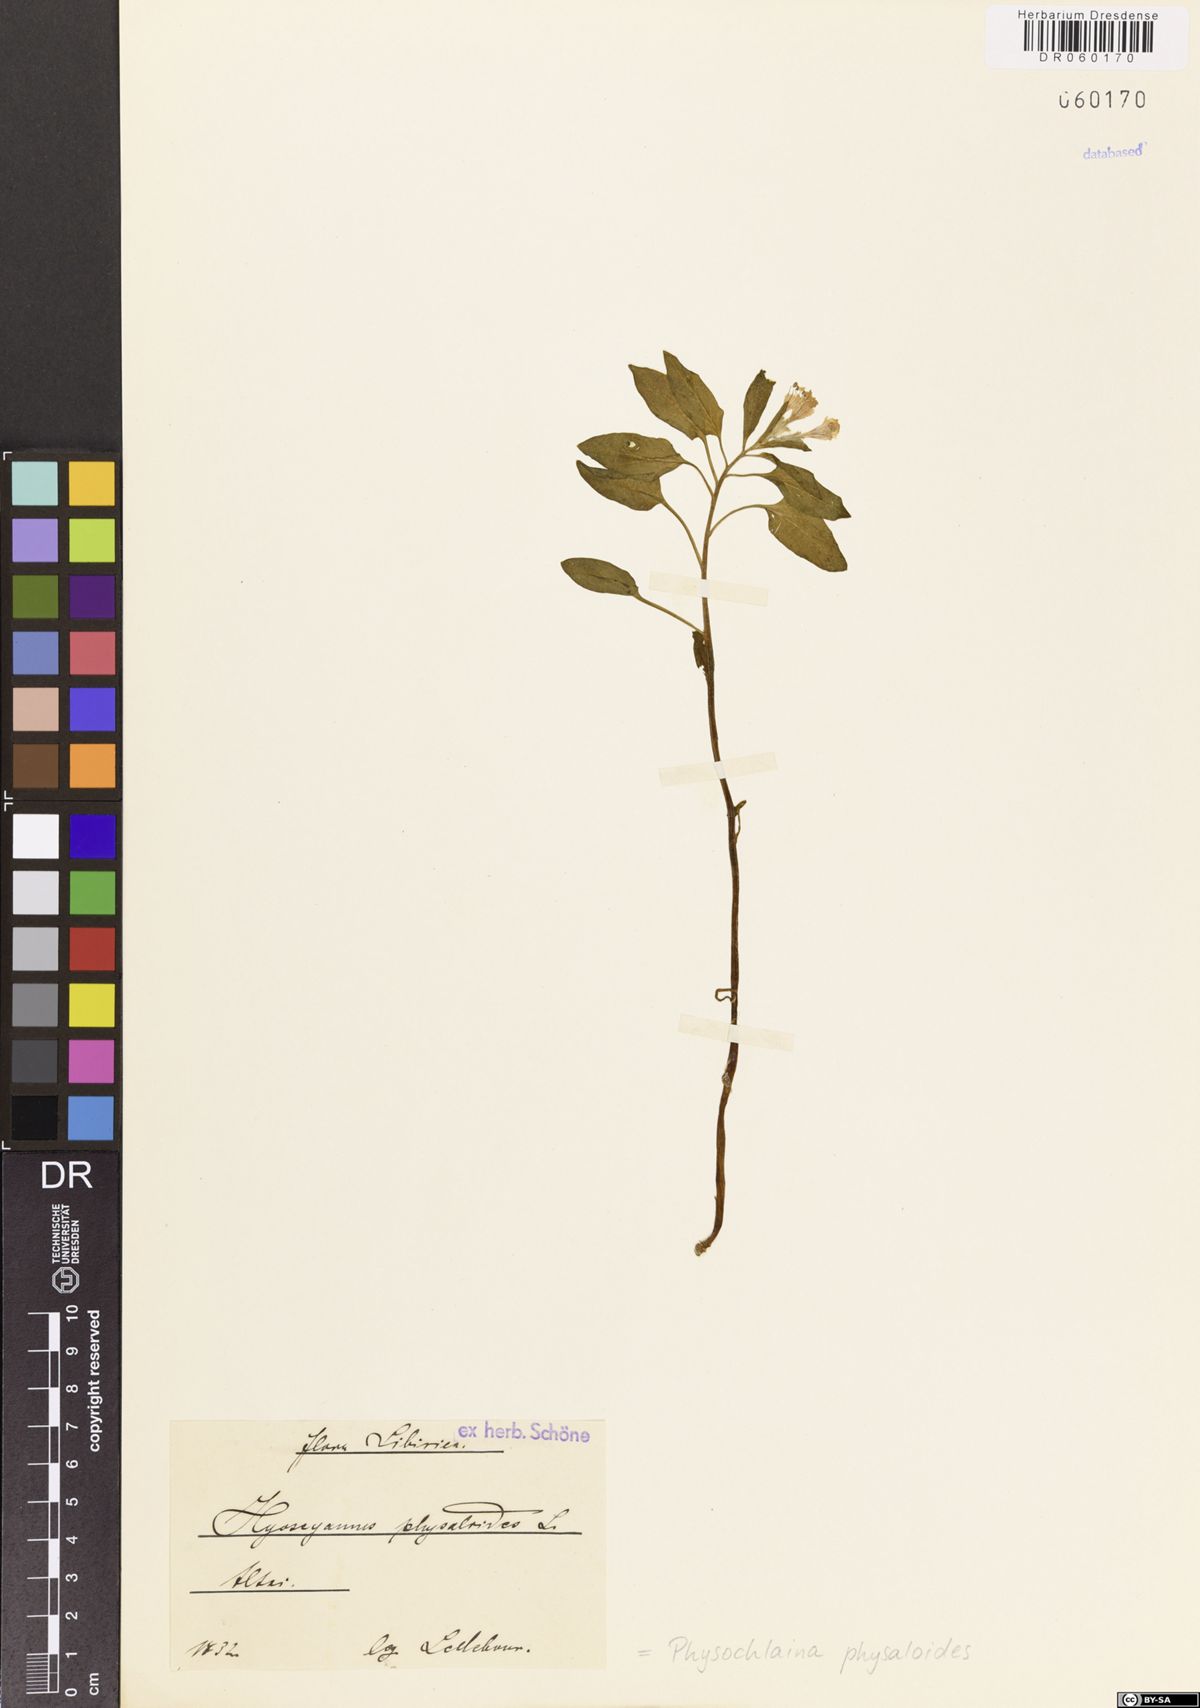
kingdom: Plantae
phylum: Tracheophyta
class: Magnoliopsida
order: Solanales
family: Solanaceae
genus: Physochlaina
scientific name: Physochlaina physaloides
